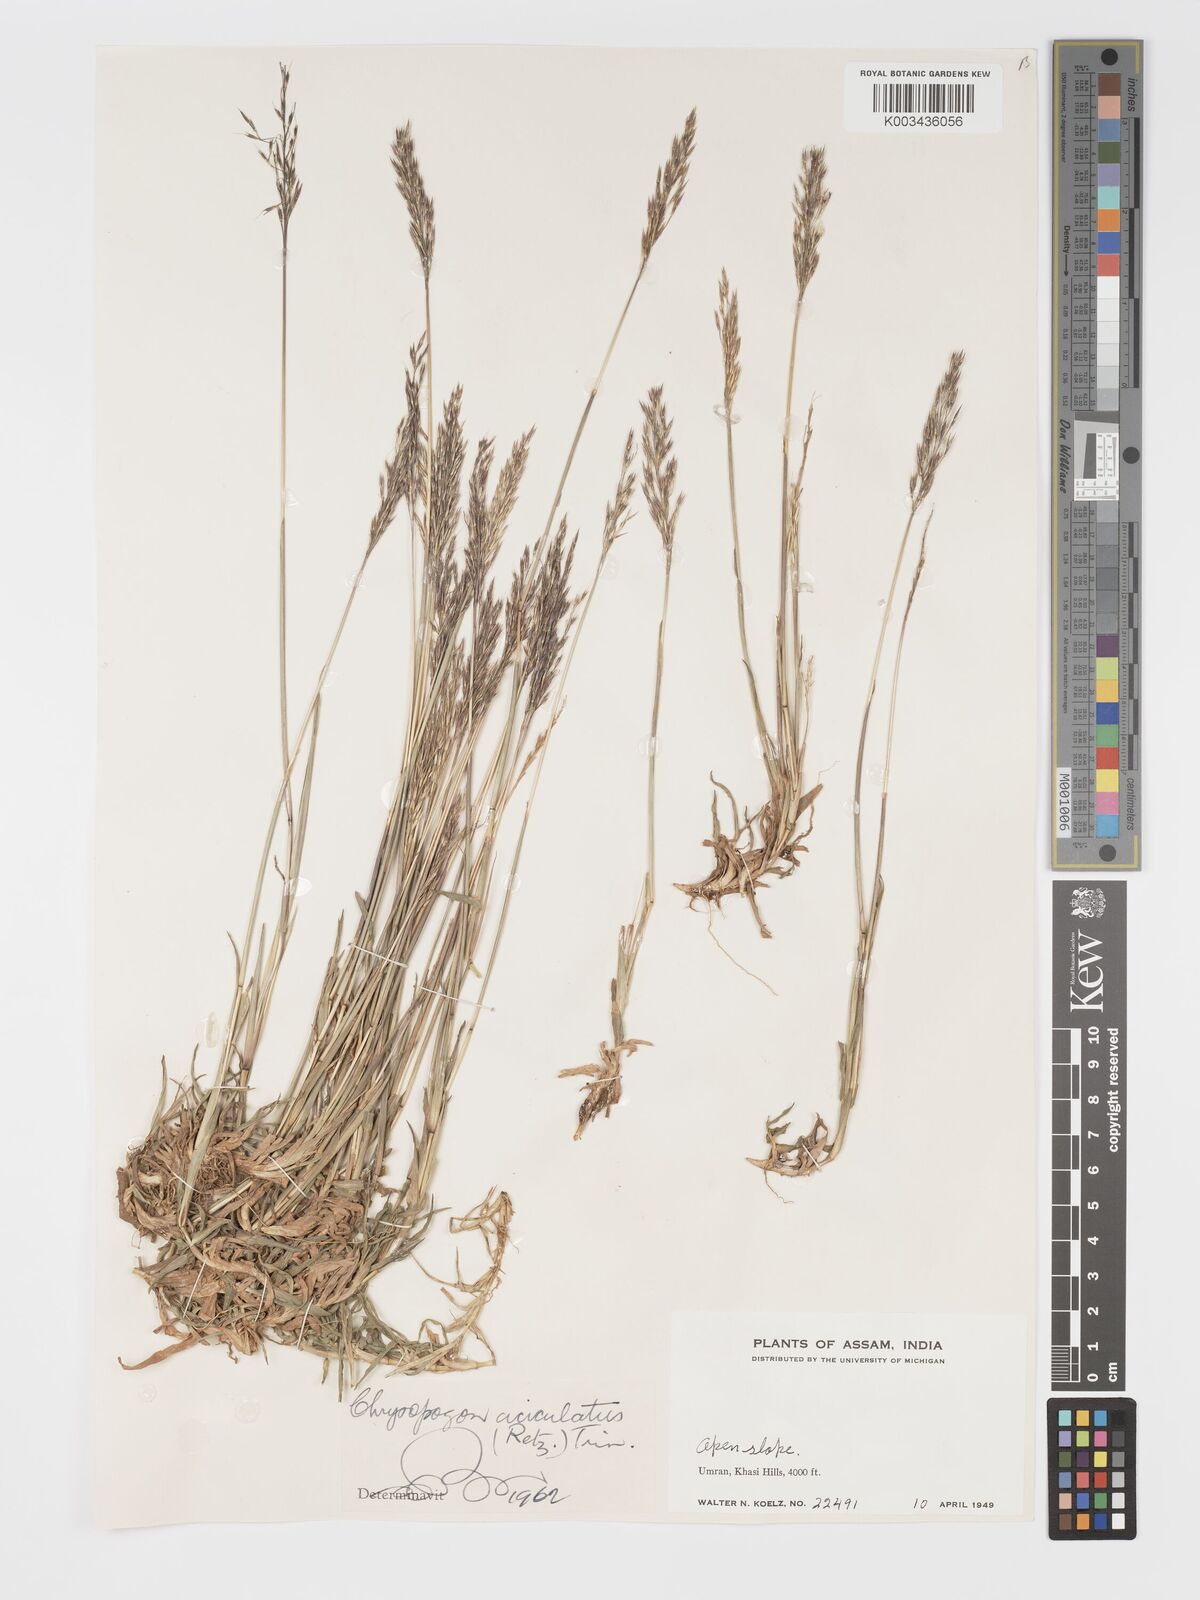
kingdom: Plantae
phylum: Tracheophyta
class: Liliopsida
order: Poales
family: Poaceae
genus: Chrysopogon
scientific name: Chrysopogon aciculatus
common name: Pilipiliula
